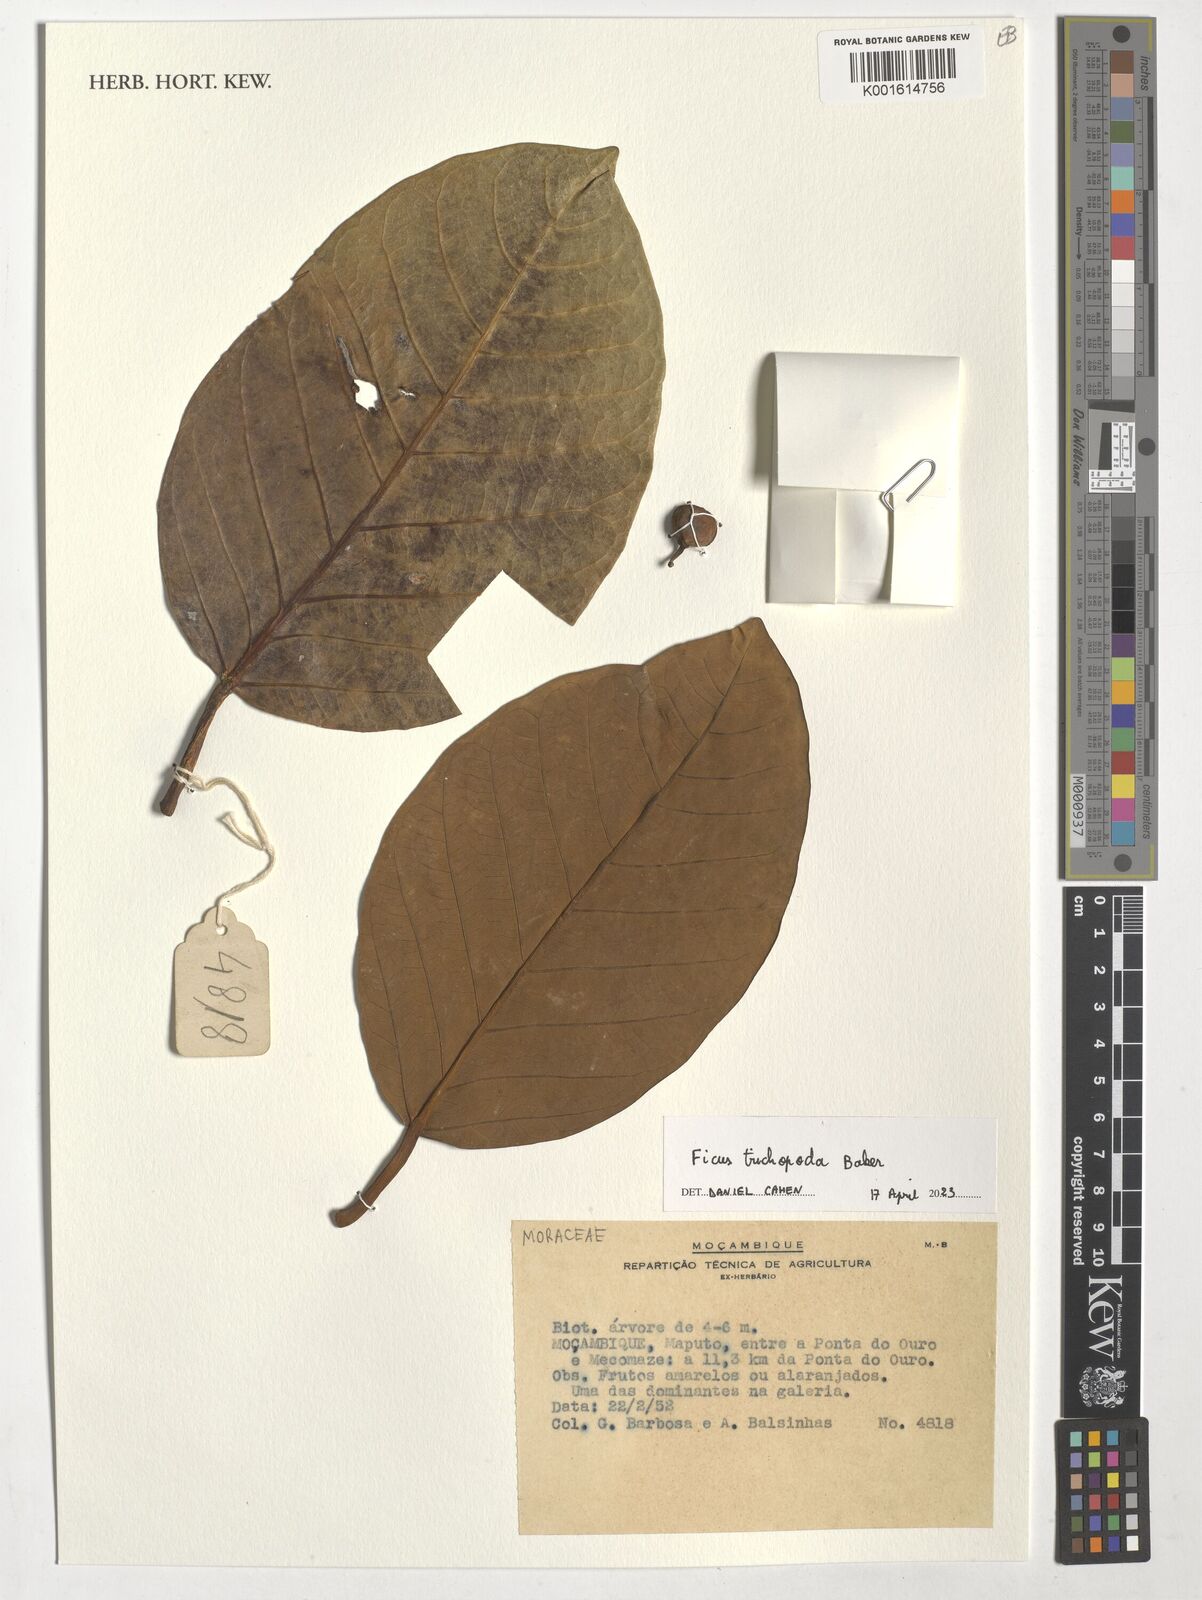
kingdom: Plantae
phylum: Tracheophyta
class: Magnoliopsida
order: Rosales
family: Moraceae
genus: Ficus
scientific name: Ficus trichopoda
